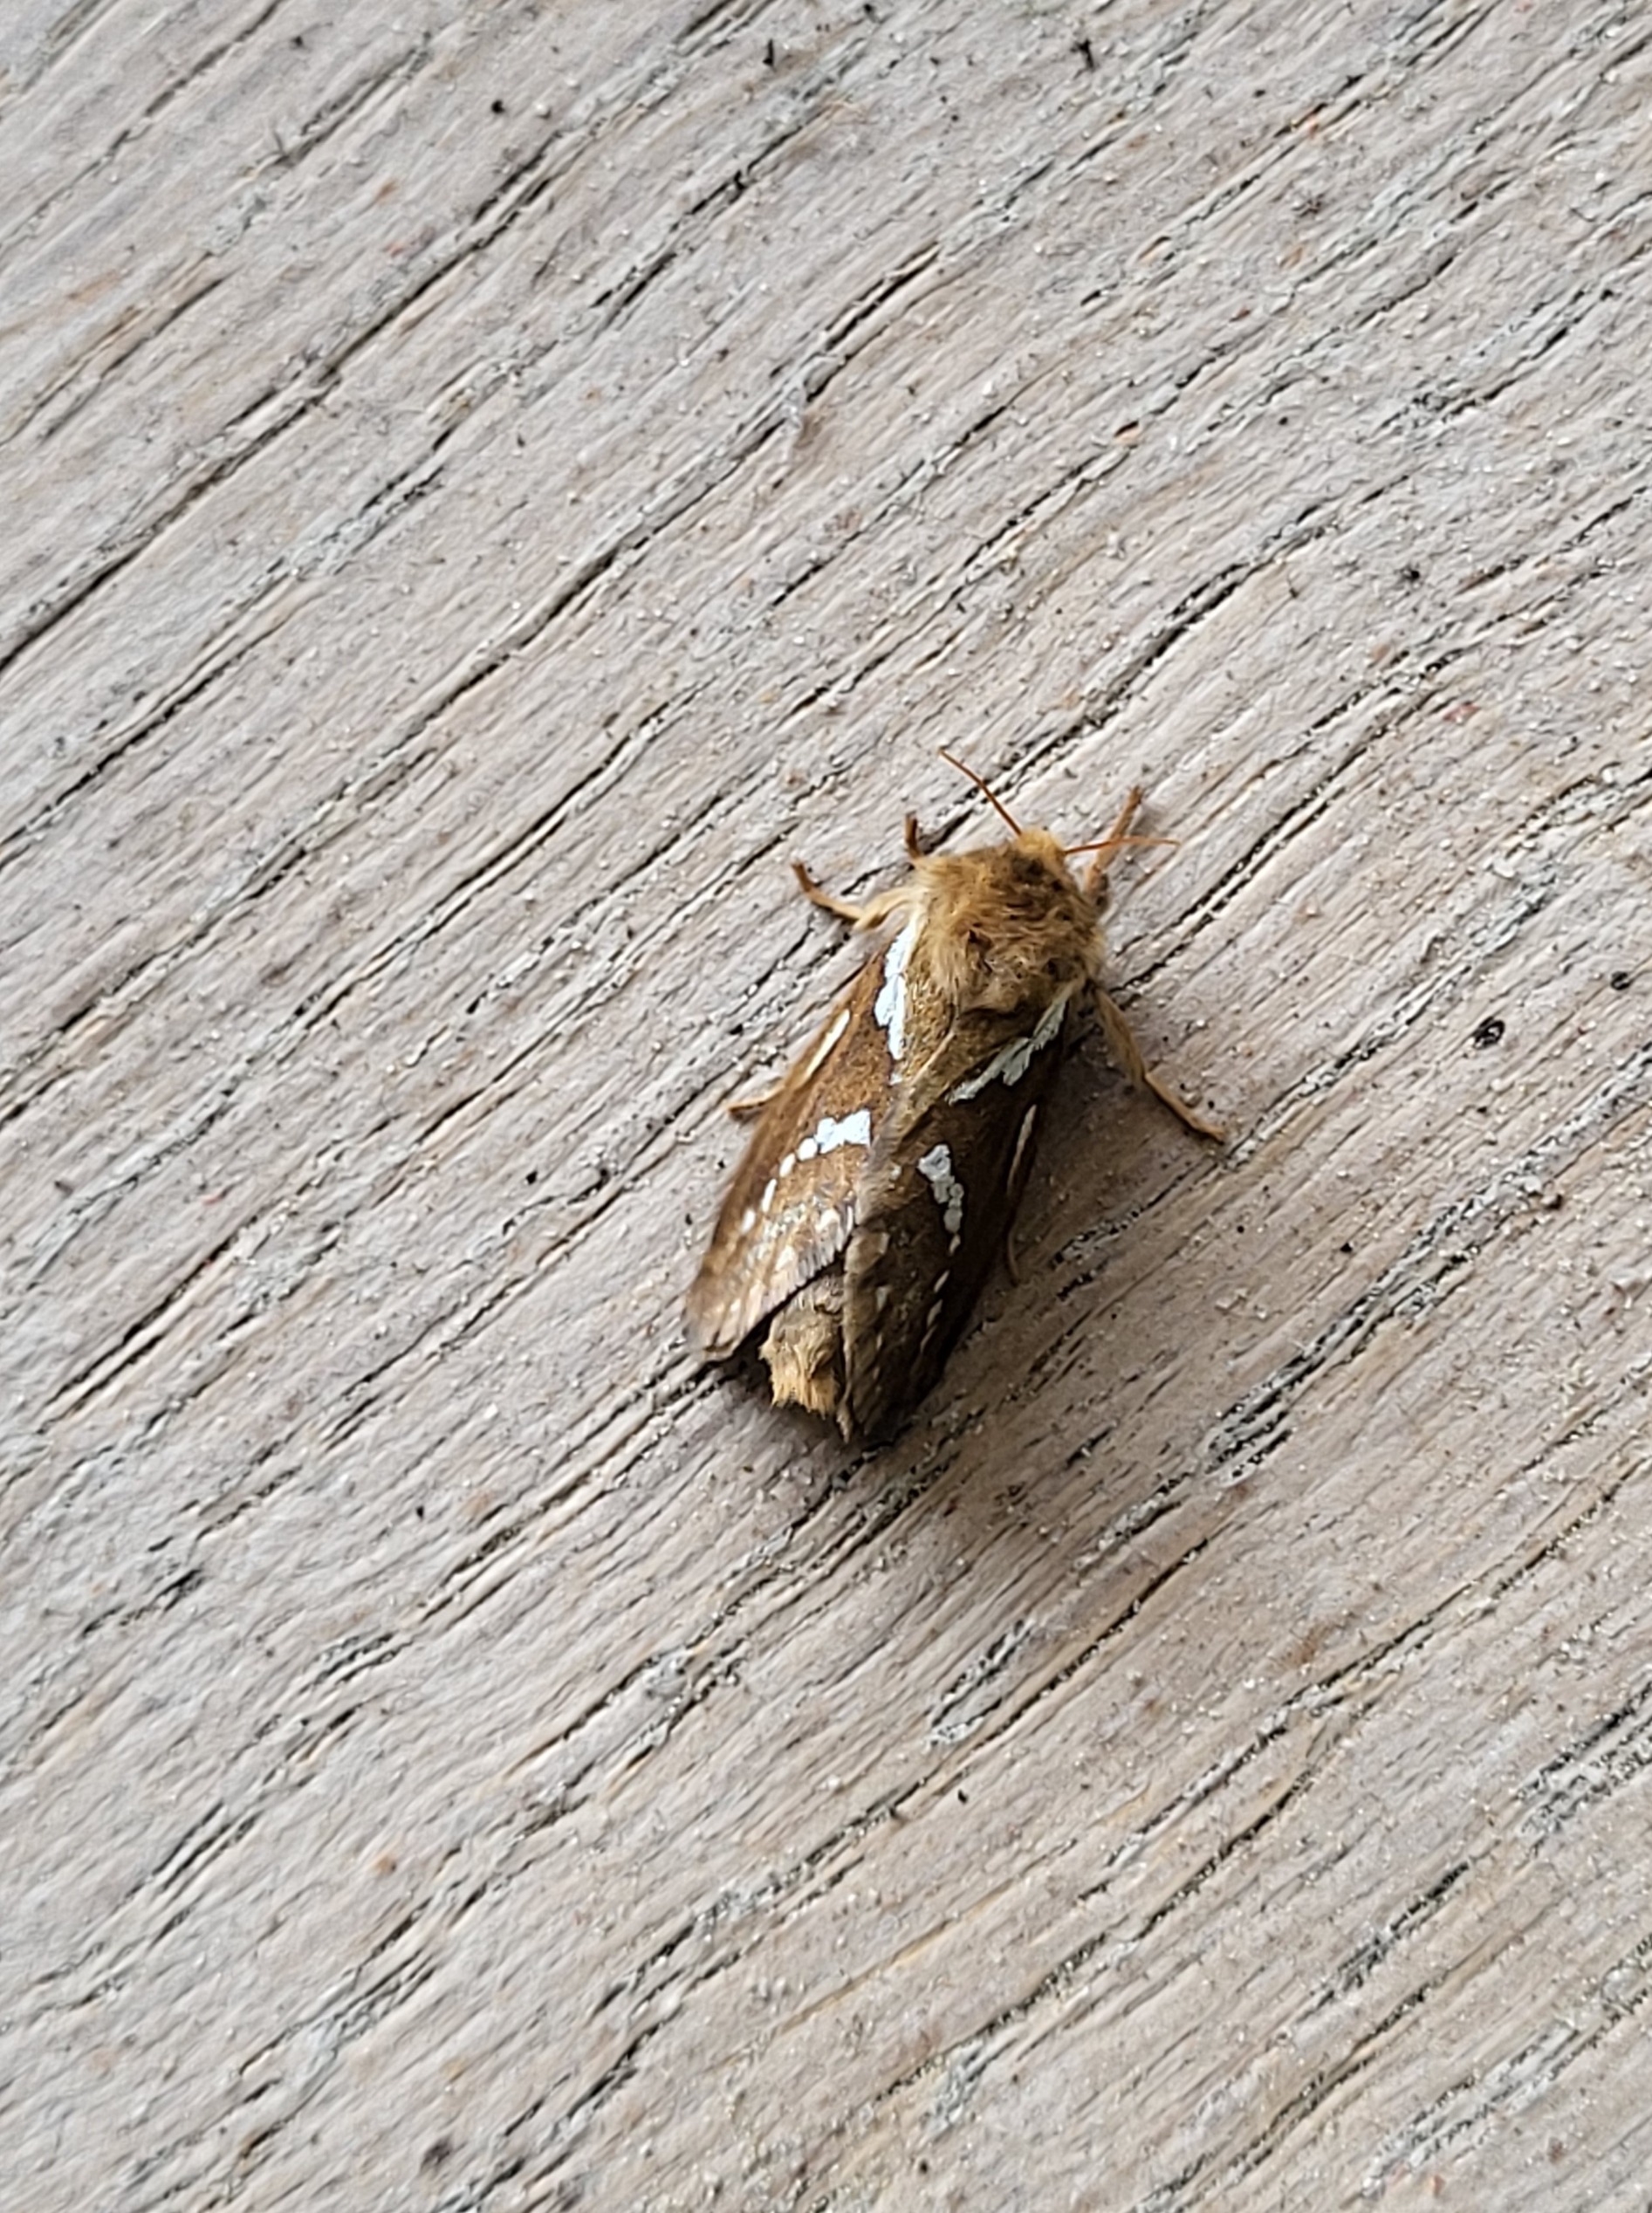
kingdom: Animalia
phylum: Arthropoda
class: Insecta
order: Lepidoptera
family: Hepialidae
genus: Korscheltellus
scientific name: Korscheltellus lupulina
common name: Konvalrodæder
